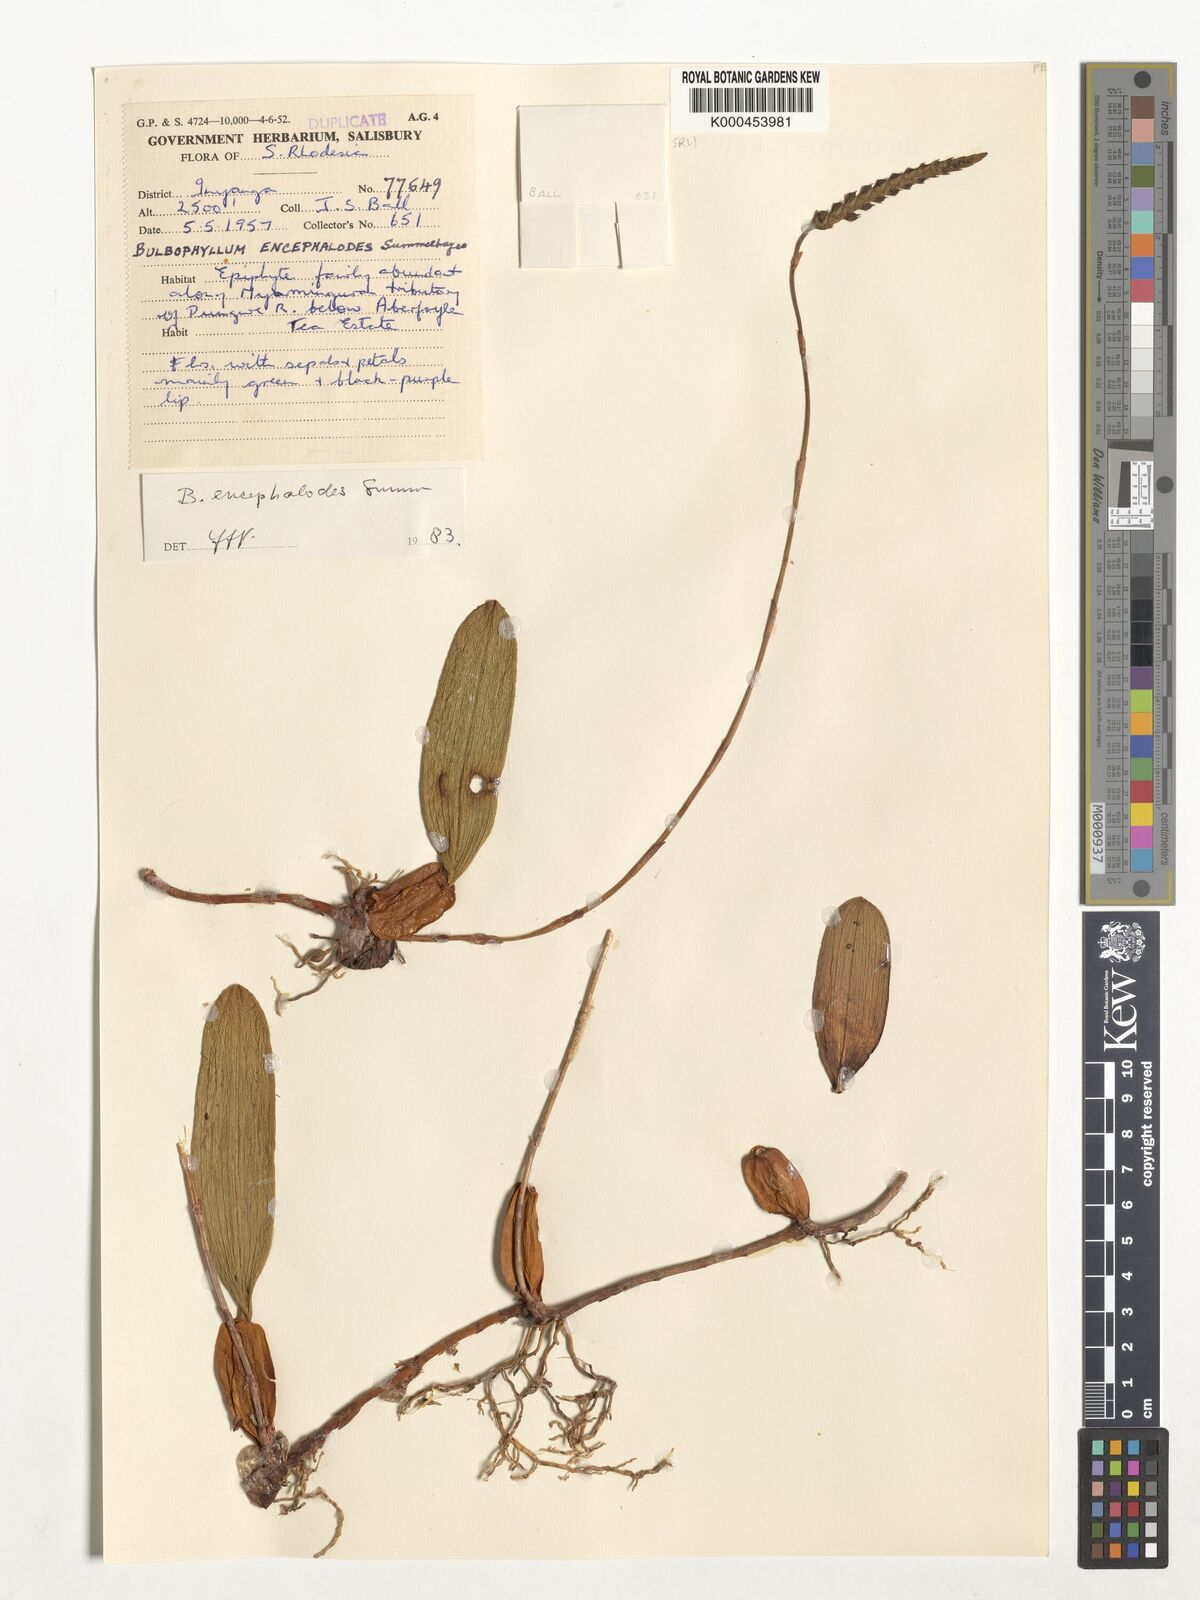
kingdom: Plantae
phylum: Tracheophyta
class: Liliopsida
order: Asparagales
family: Orchidaceae
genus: Bulbophyllum
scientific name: Bulbophyllum encephalodes
